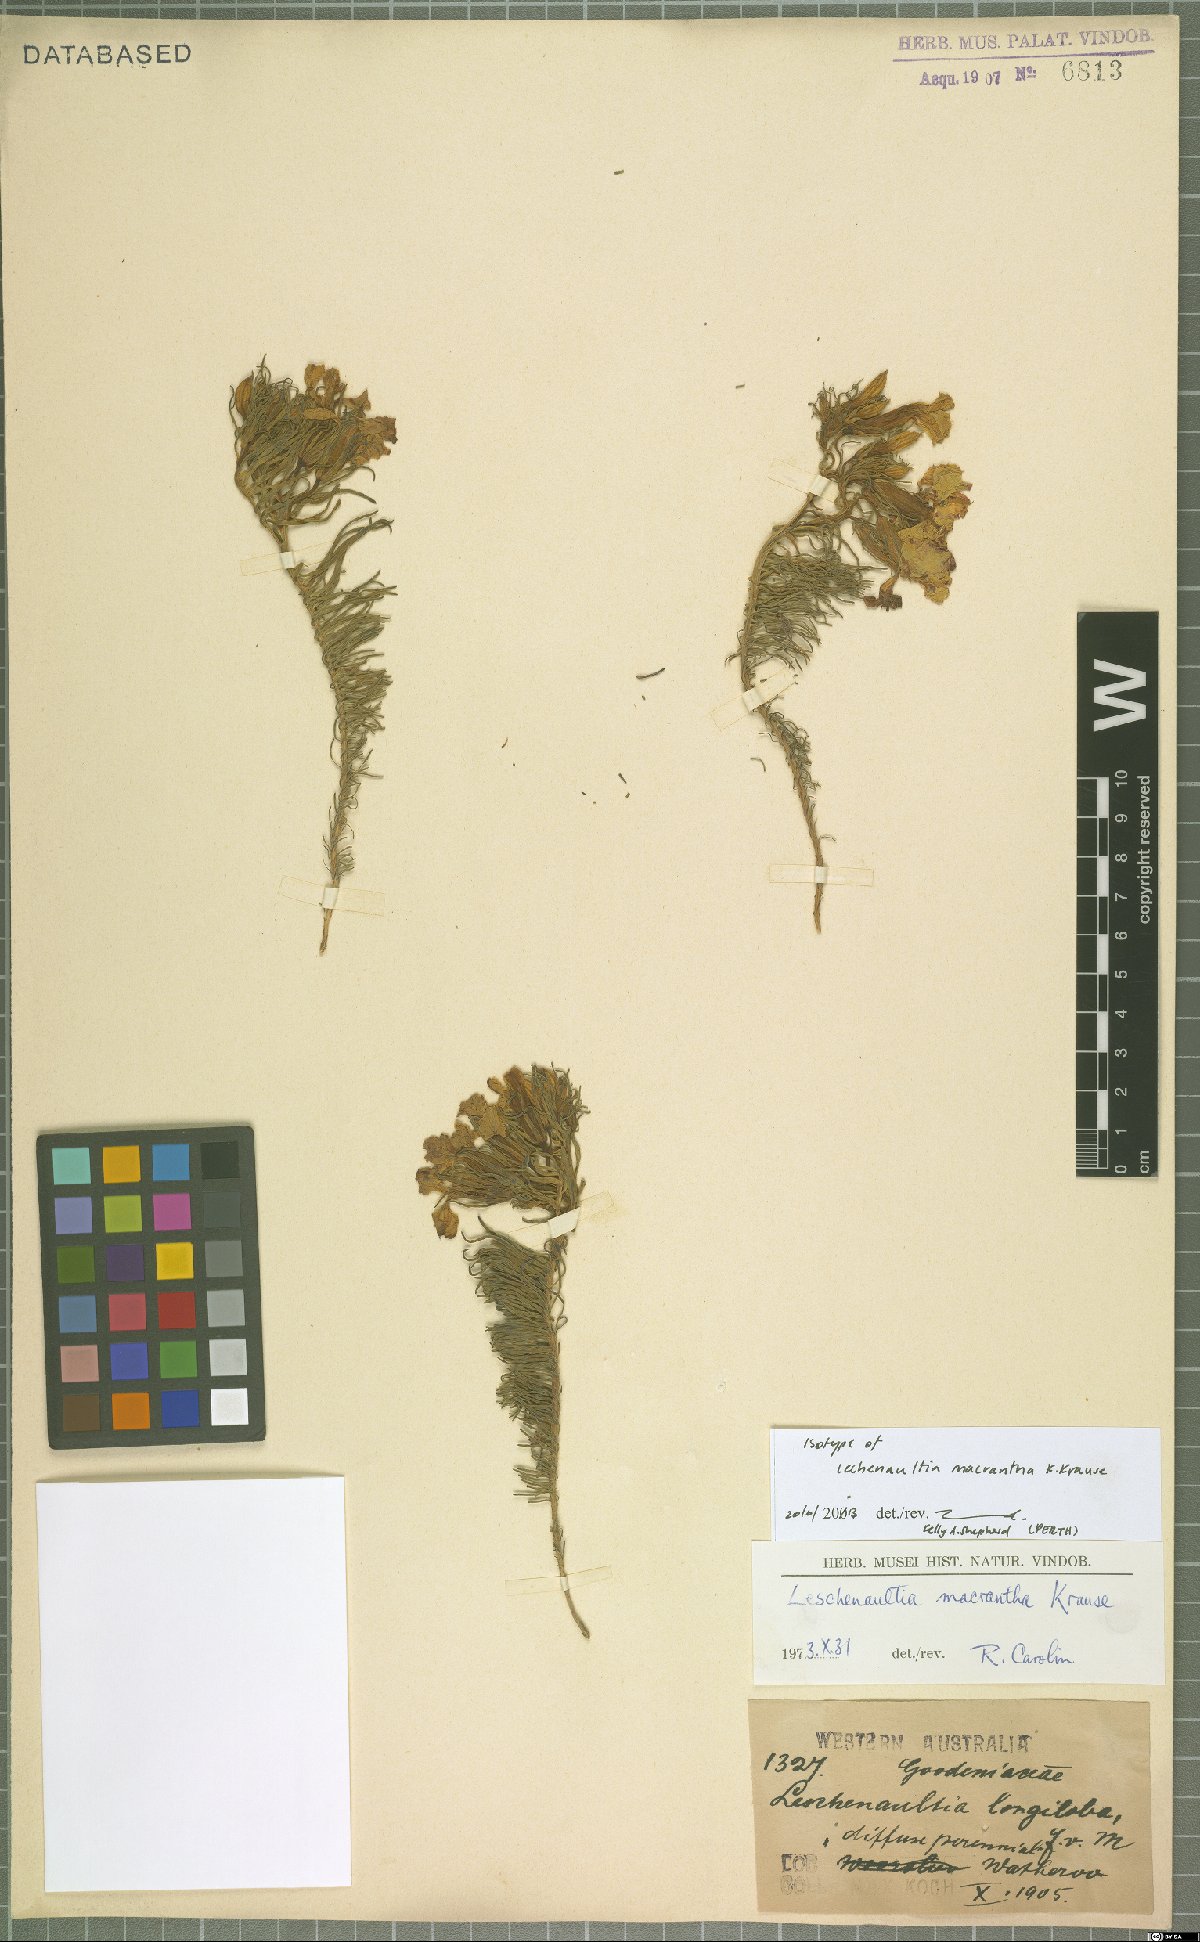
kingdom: Plantae
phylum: Tracheophyta
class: Magnoliopsida
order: Asterales
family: Goodeniaceae
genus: Lechenaultia
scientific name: Lechenaultia macrantha
